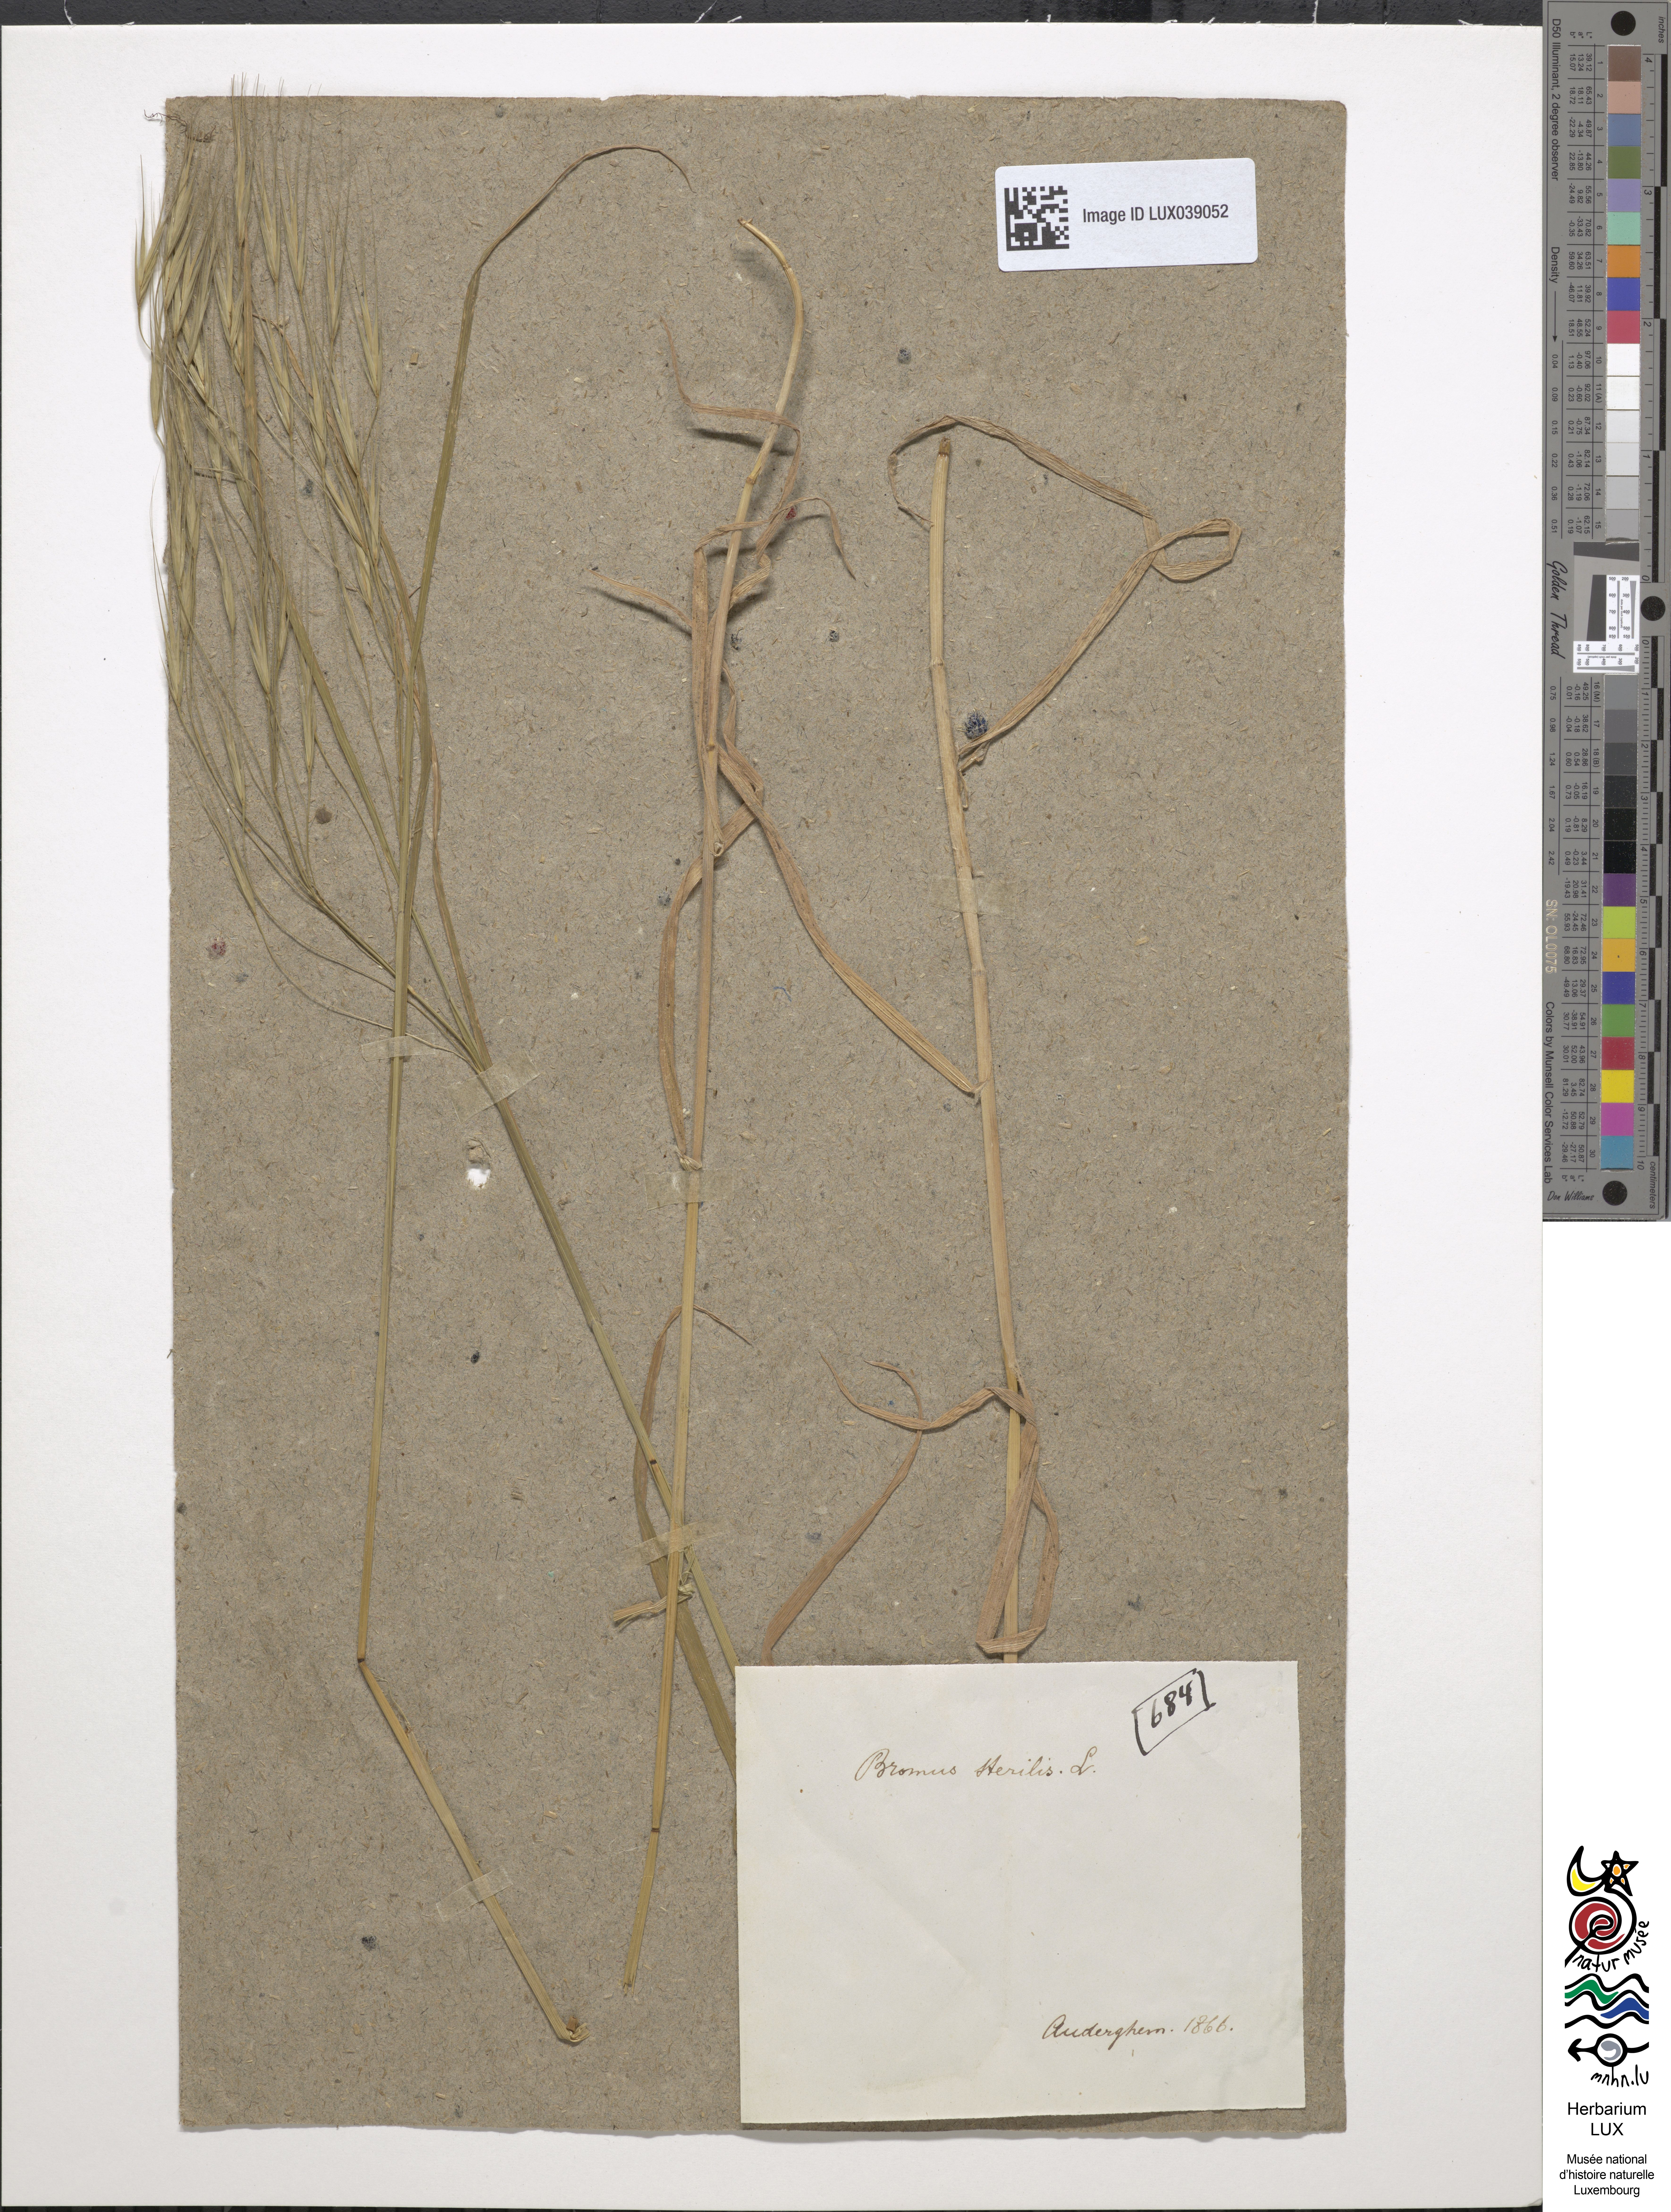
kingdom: Plantae
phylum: Tracheophyta
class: Liliopsida
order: Poales
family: Poaceae
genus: Bromus
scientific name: Bromus sterilis
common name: Poverty brome
